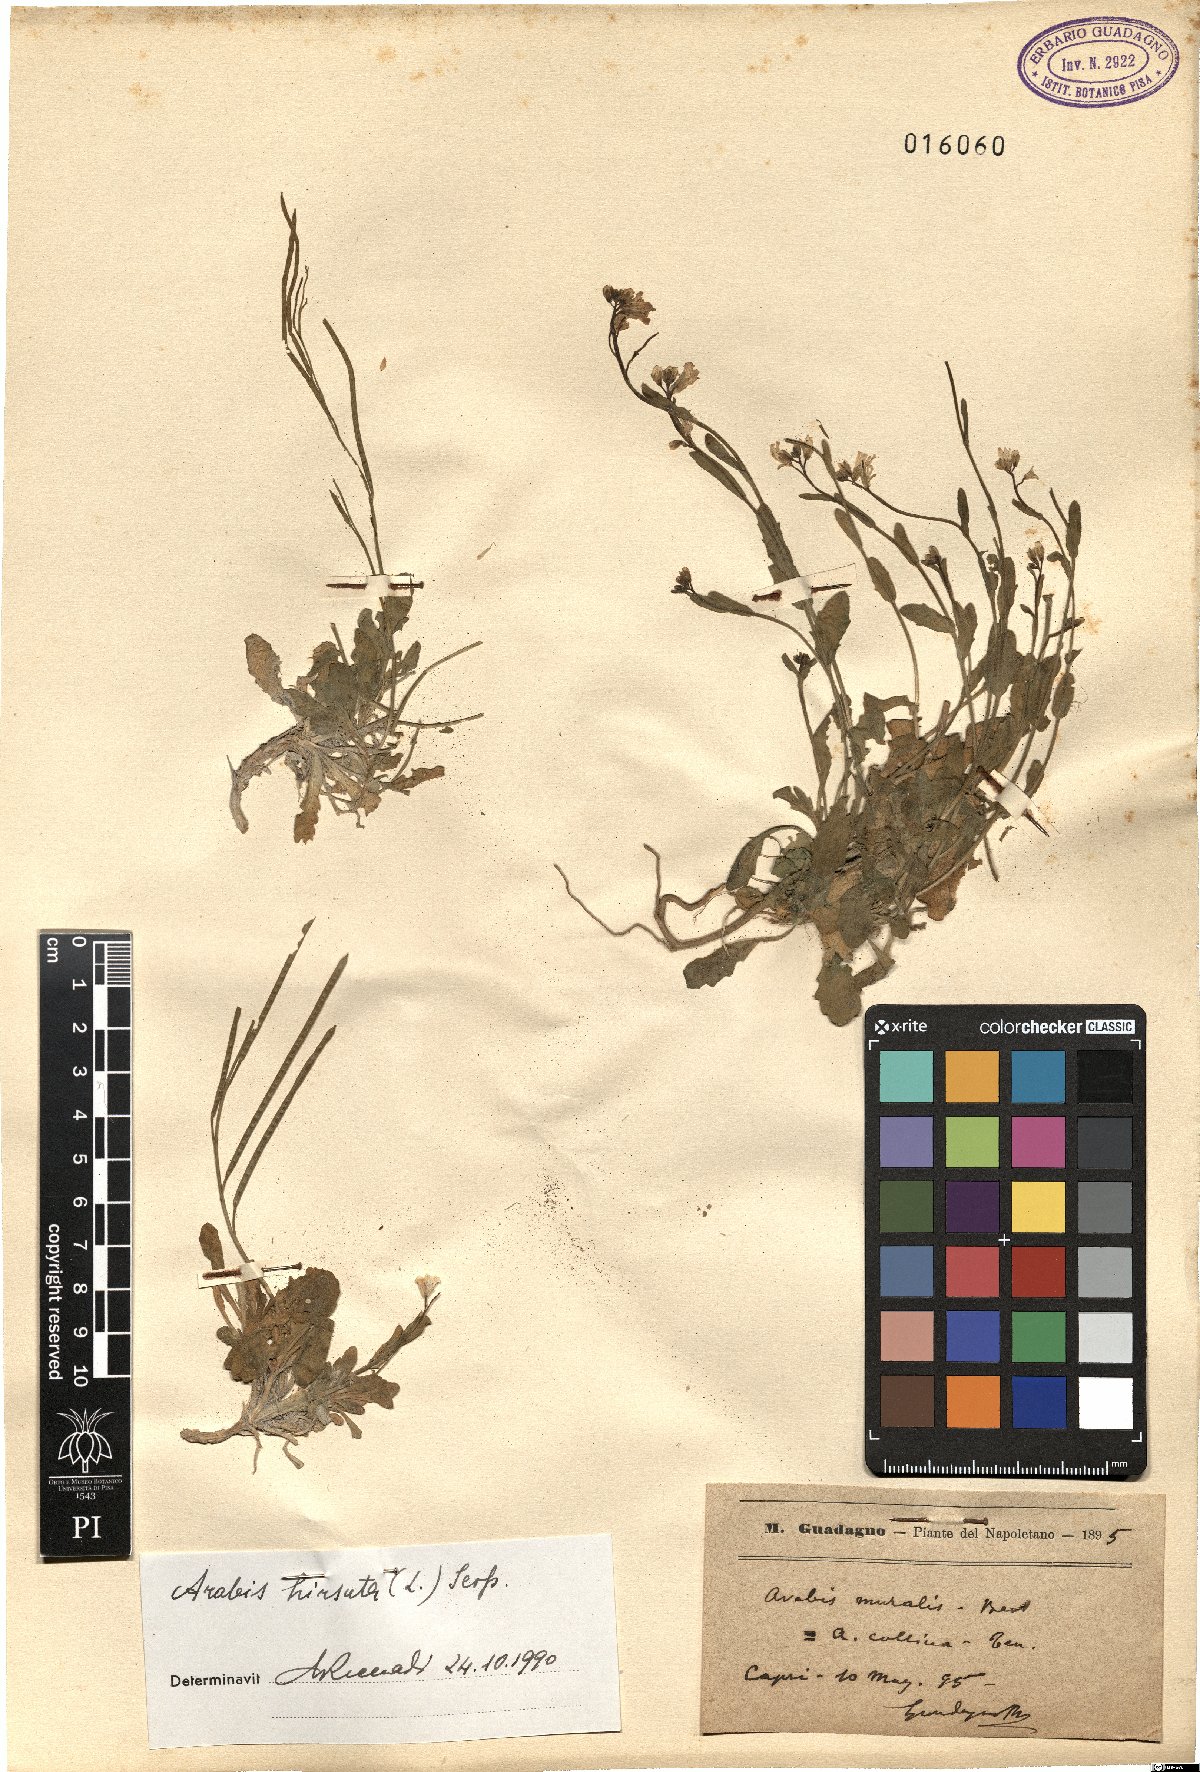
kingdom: Plantae
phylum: Tracheophyta
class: Magnoliopsida
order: Brassicales
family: Brassicaceae
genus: Arabis
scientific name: Arabis hirsuta
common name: Hairy rock-cress
